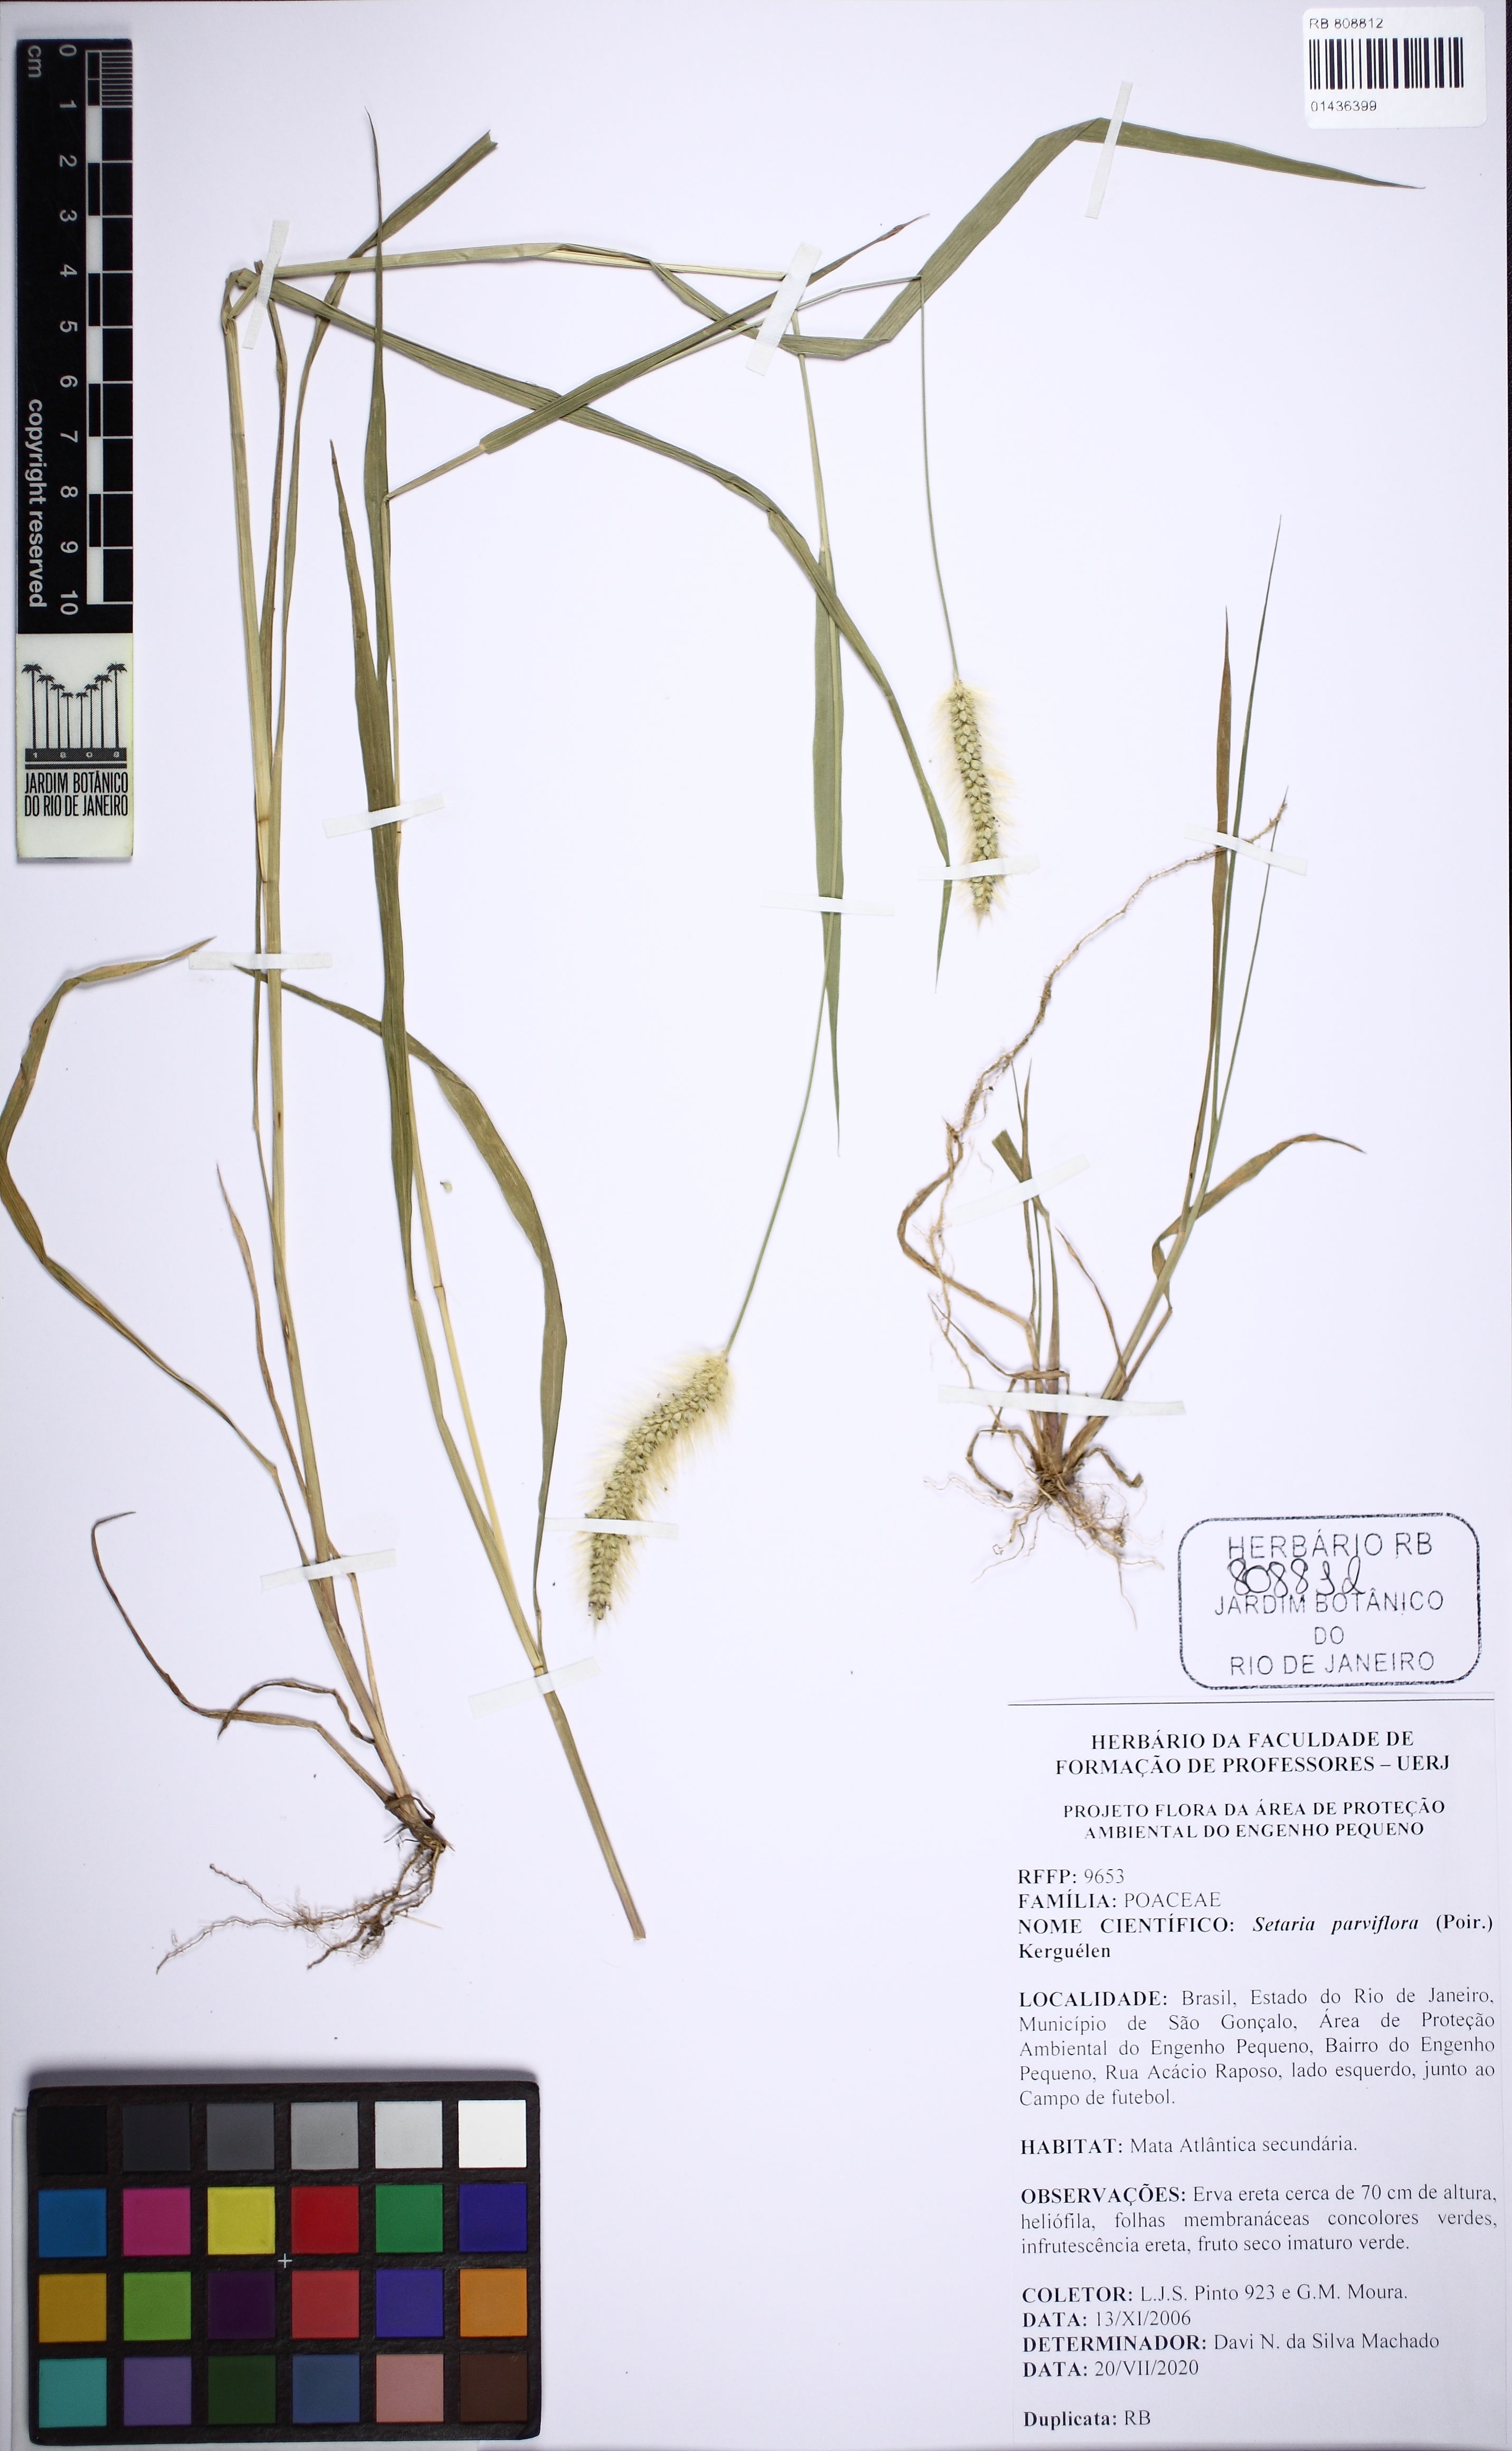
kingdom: Plantae
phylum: Tracheophyta
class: Liliopsida
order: Poales
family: Poaceae
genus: Setaria
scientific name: Setaria parviflora
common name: Knotroot bristle-grass
